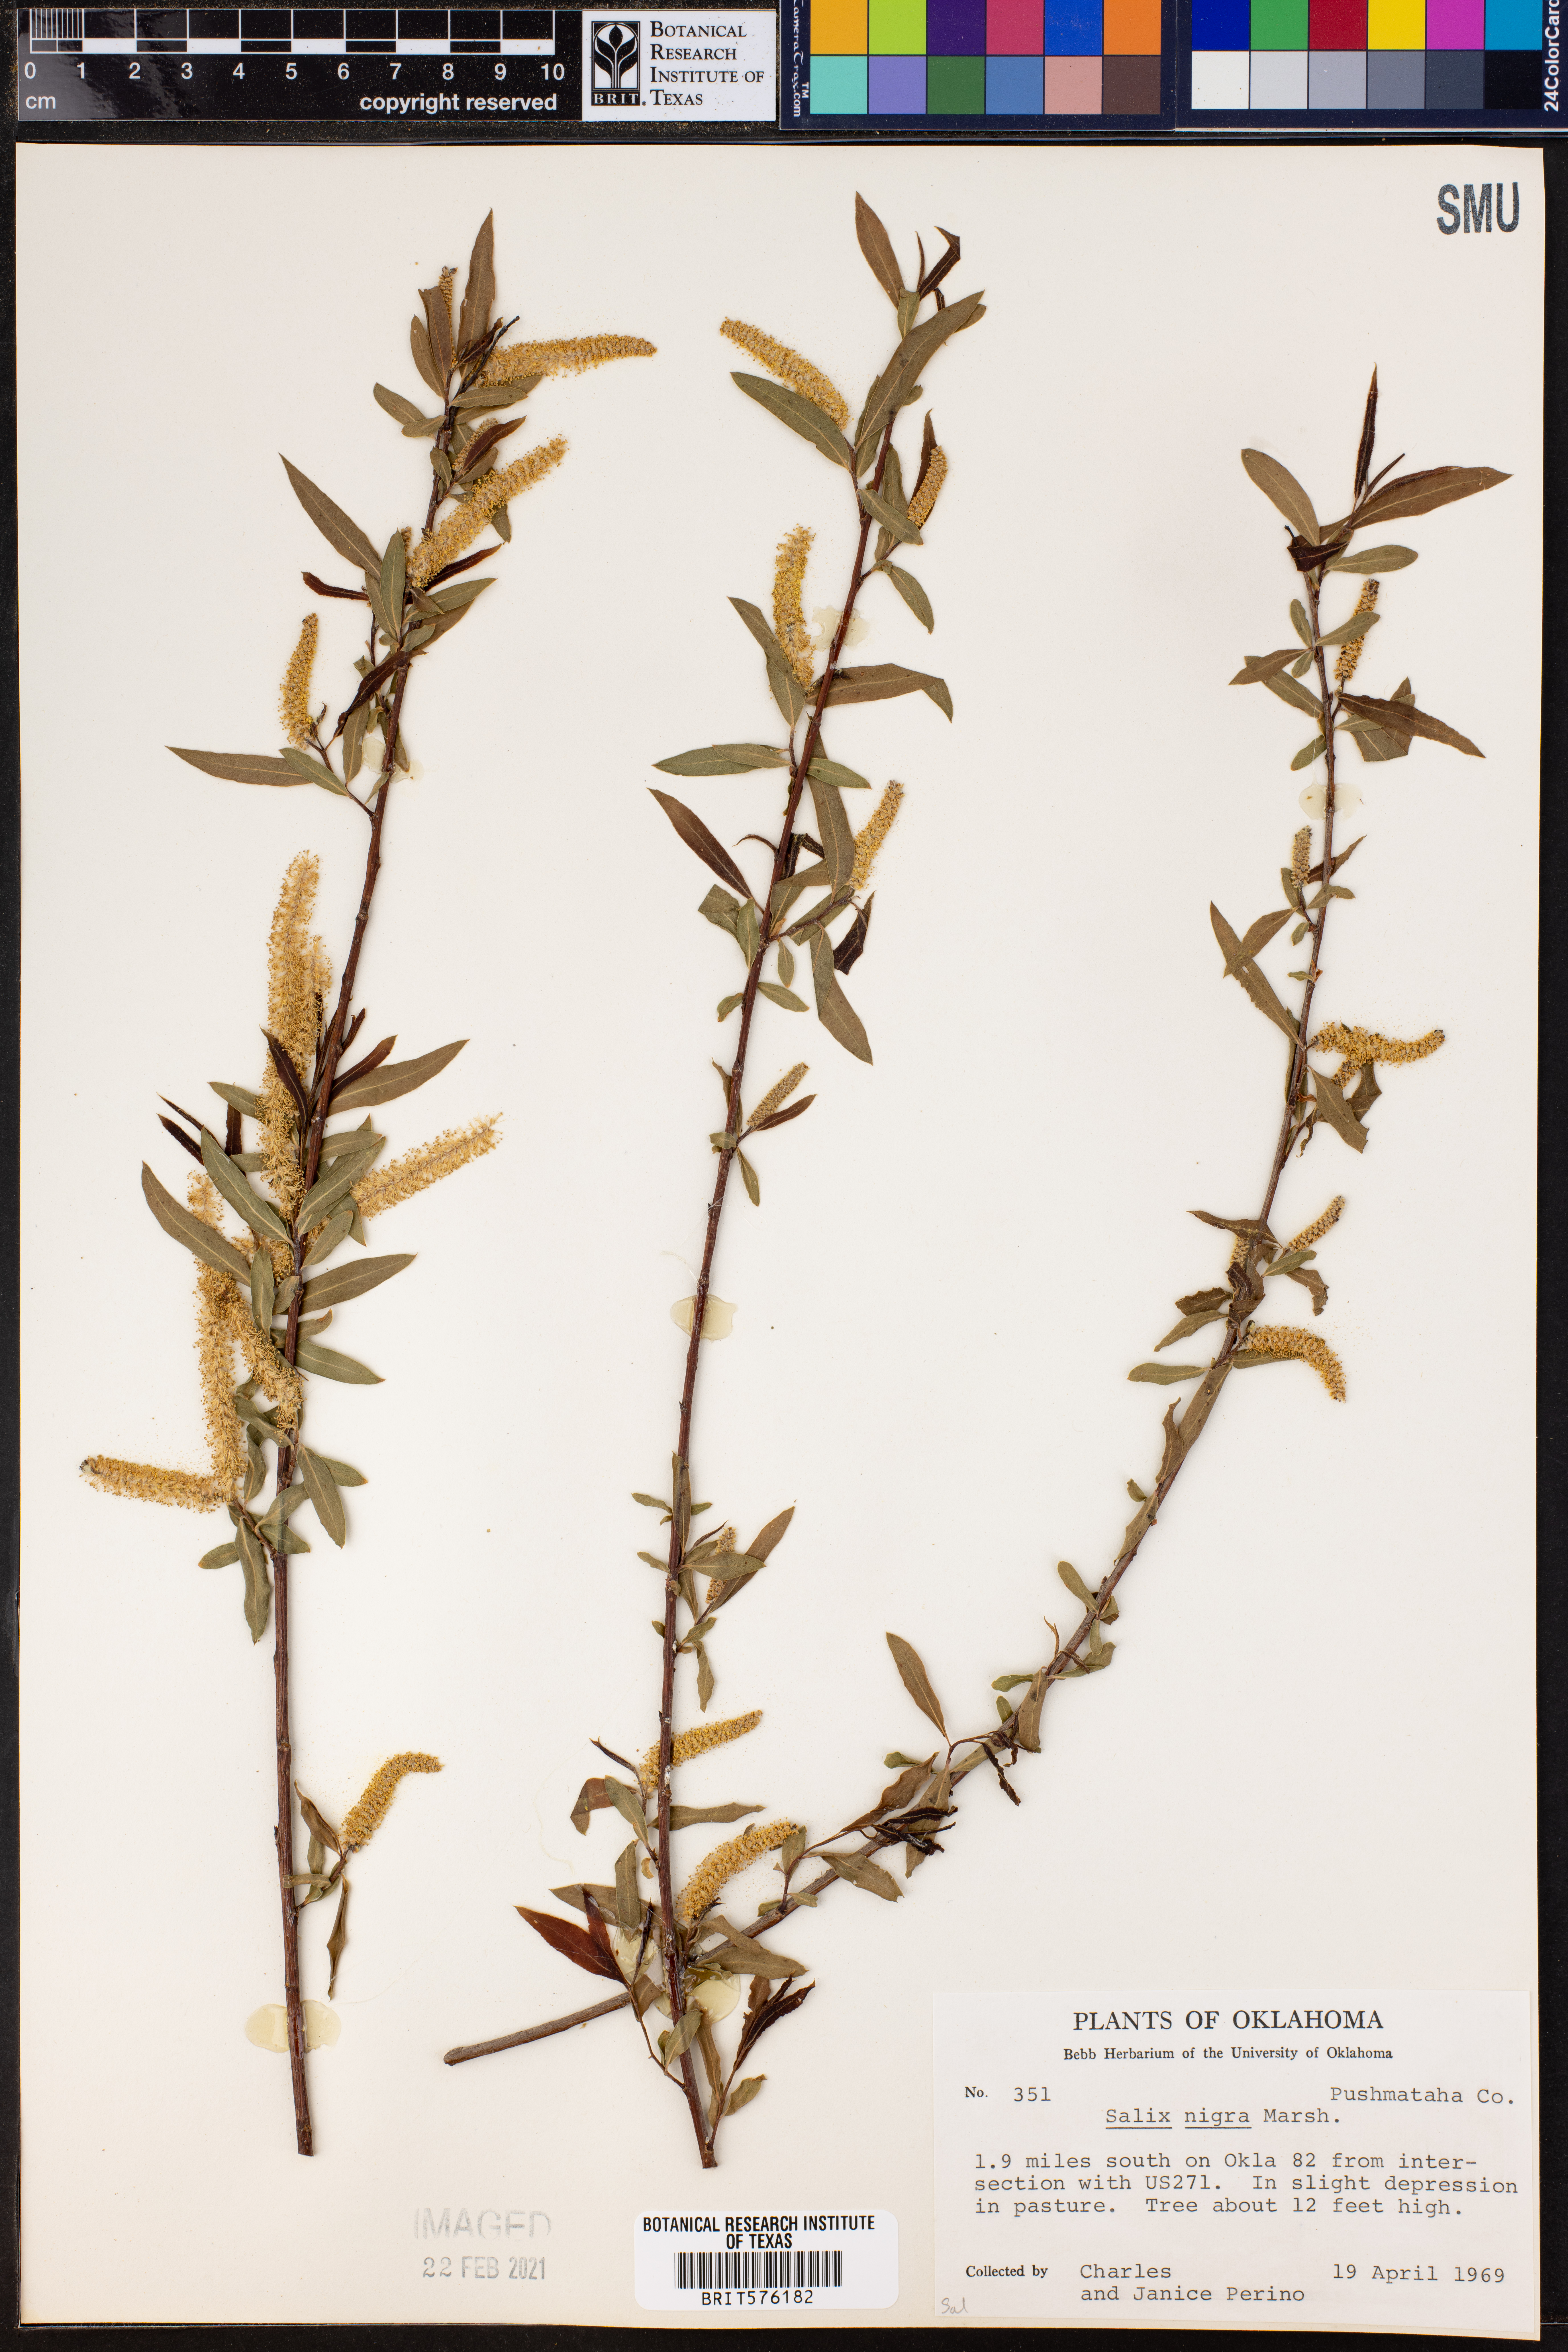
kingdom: Plantae
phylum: Tracheophyta
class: Magnoliopsida
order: Malpighiales
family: Salicaceae
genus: Salix
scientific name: Salix nigra
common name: Black willow
